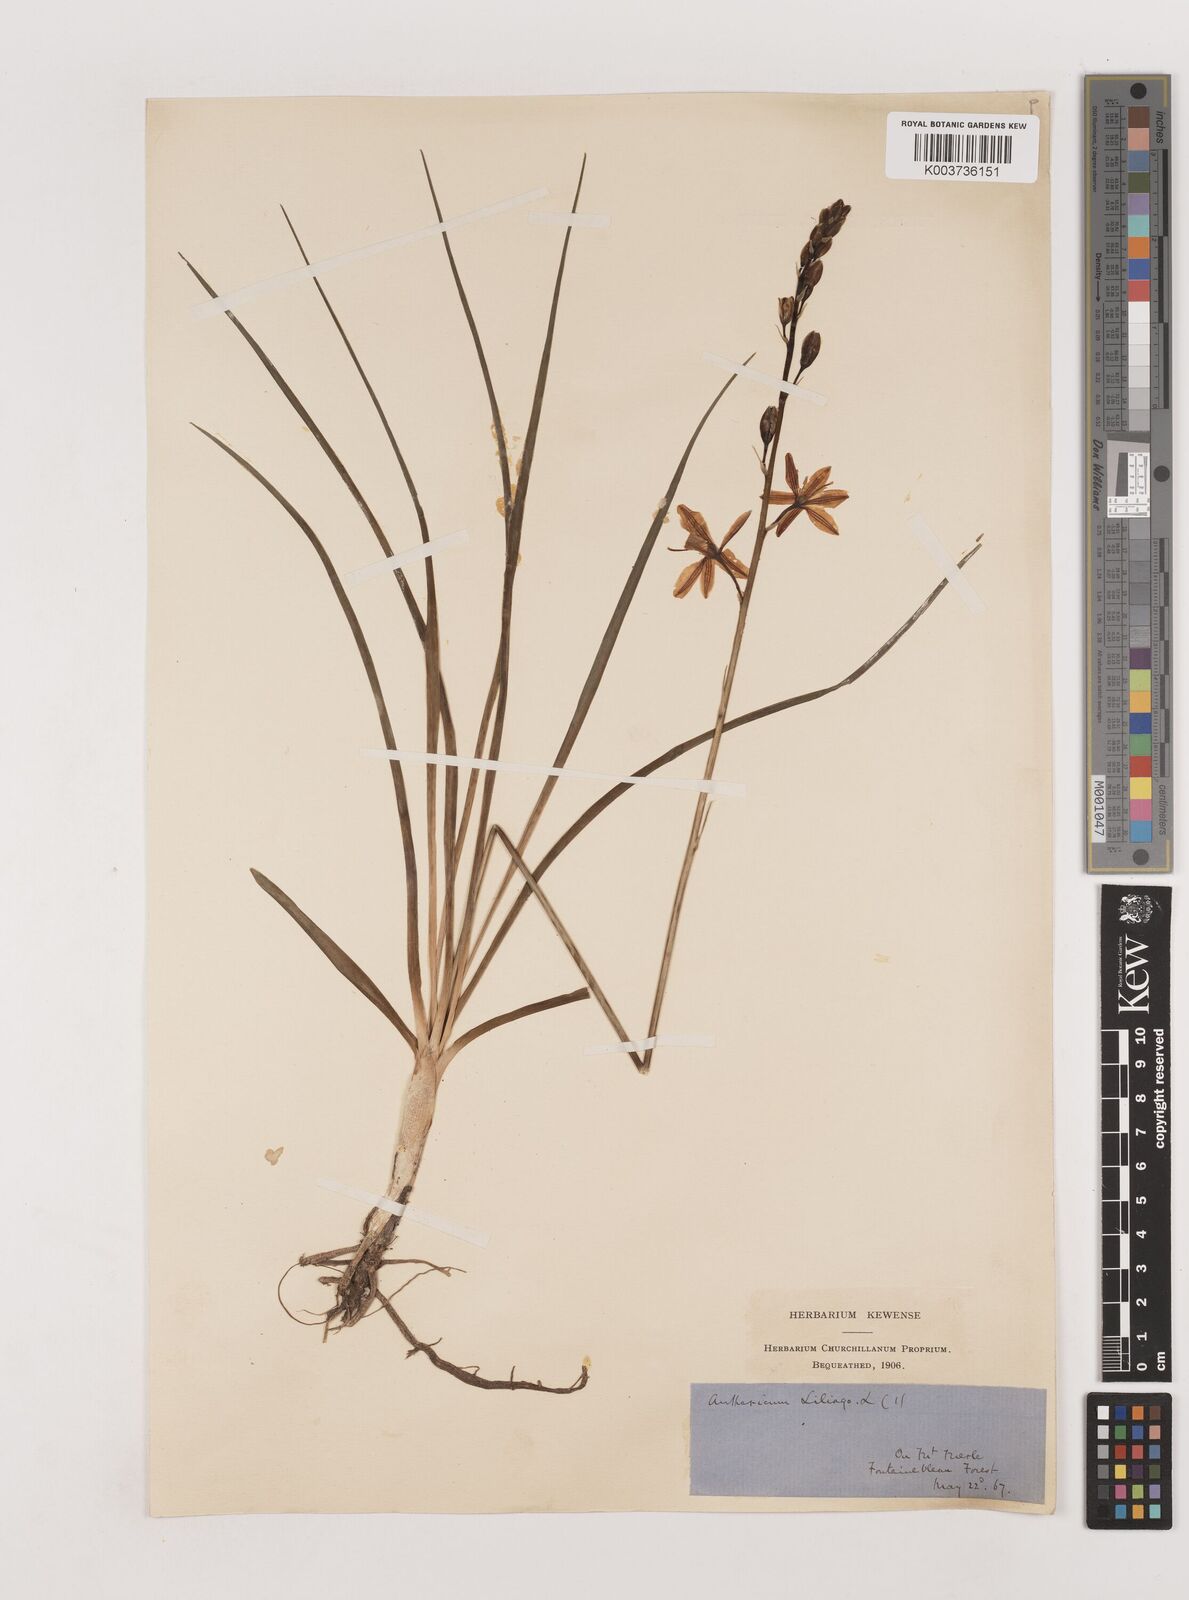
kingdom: Plantae
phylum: Tracheophyta
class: Liliopsida
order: Asparagales
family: Asparagaceae
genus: Anthericum
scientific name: Anthericum liliago
